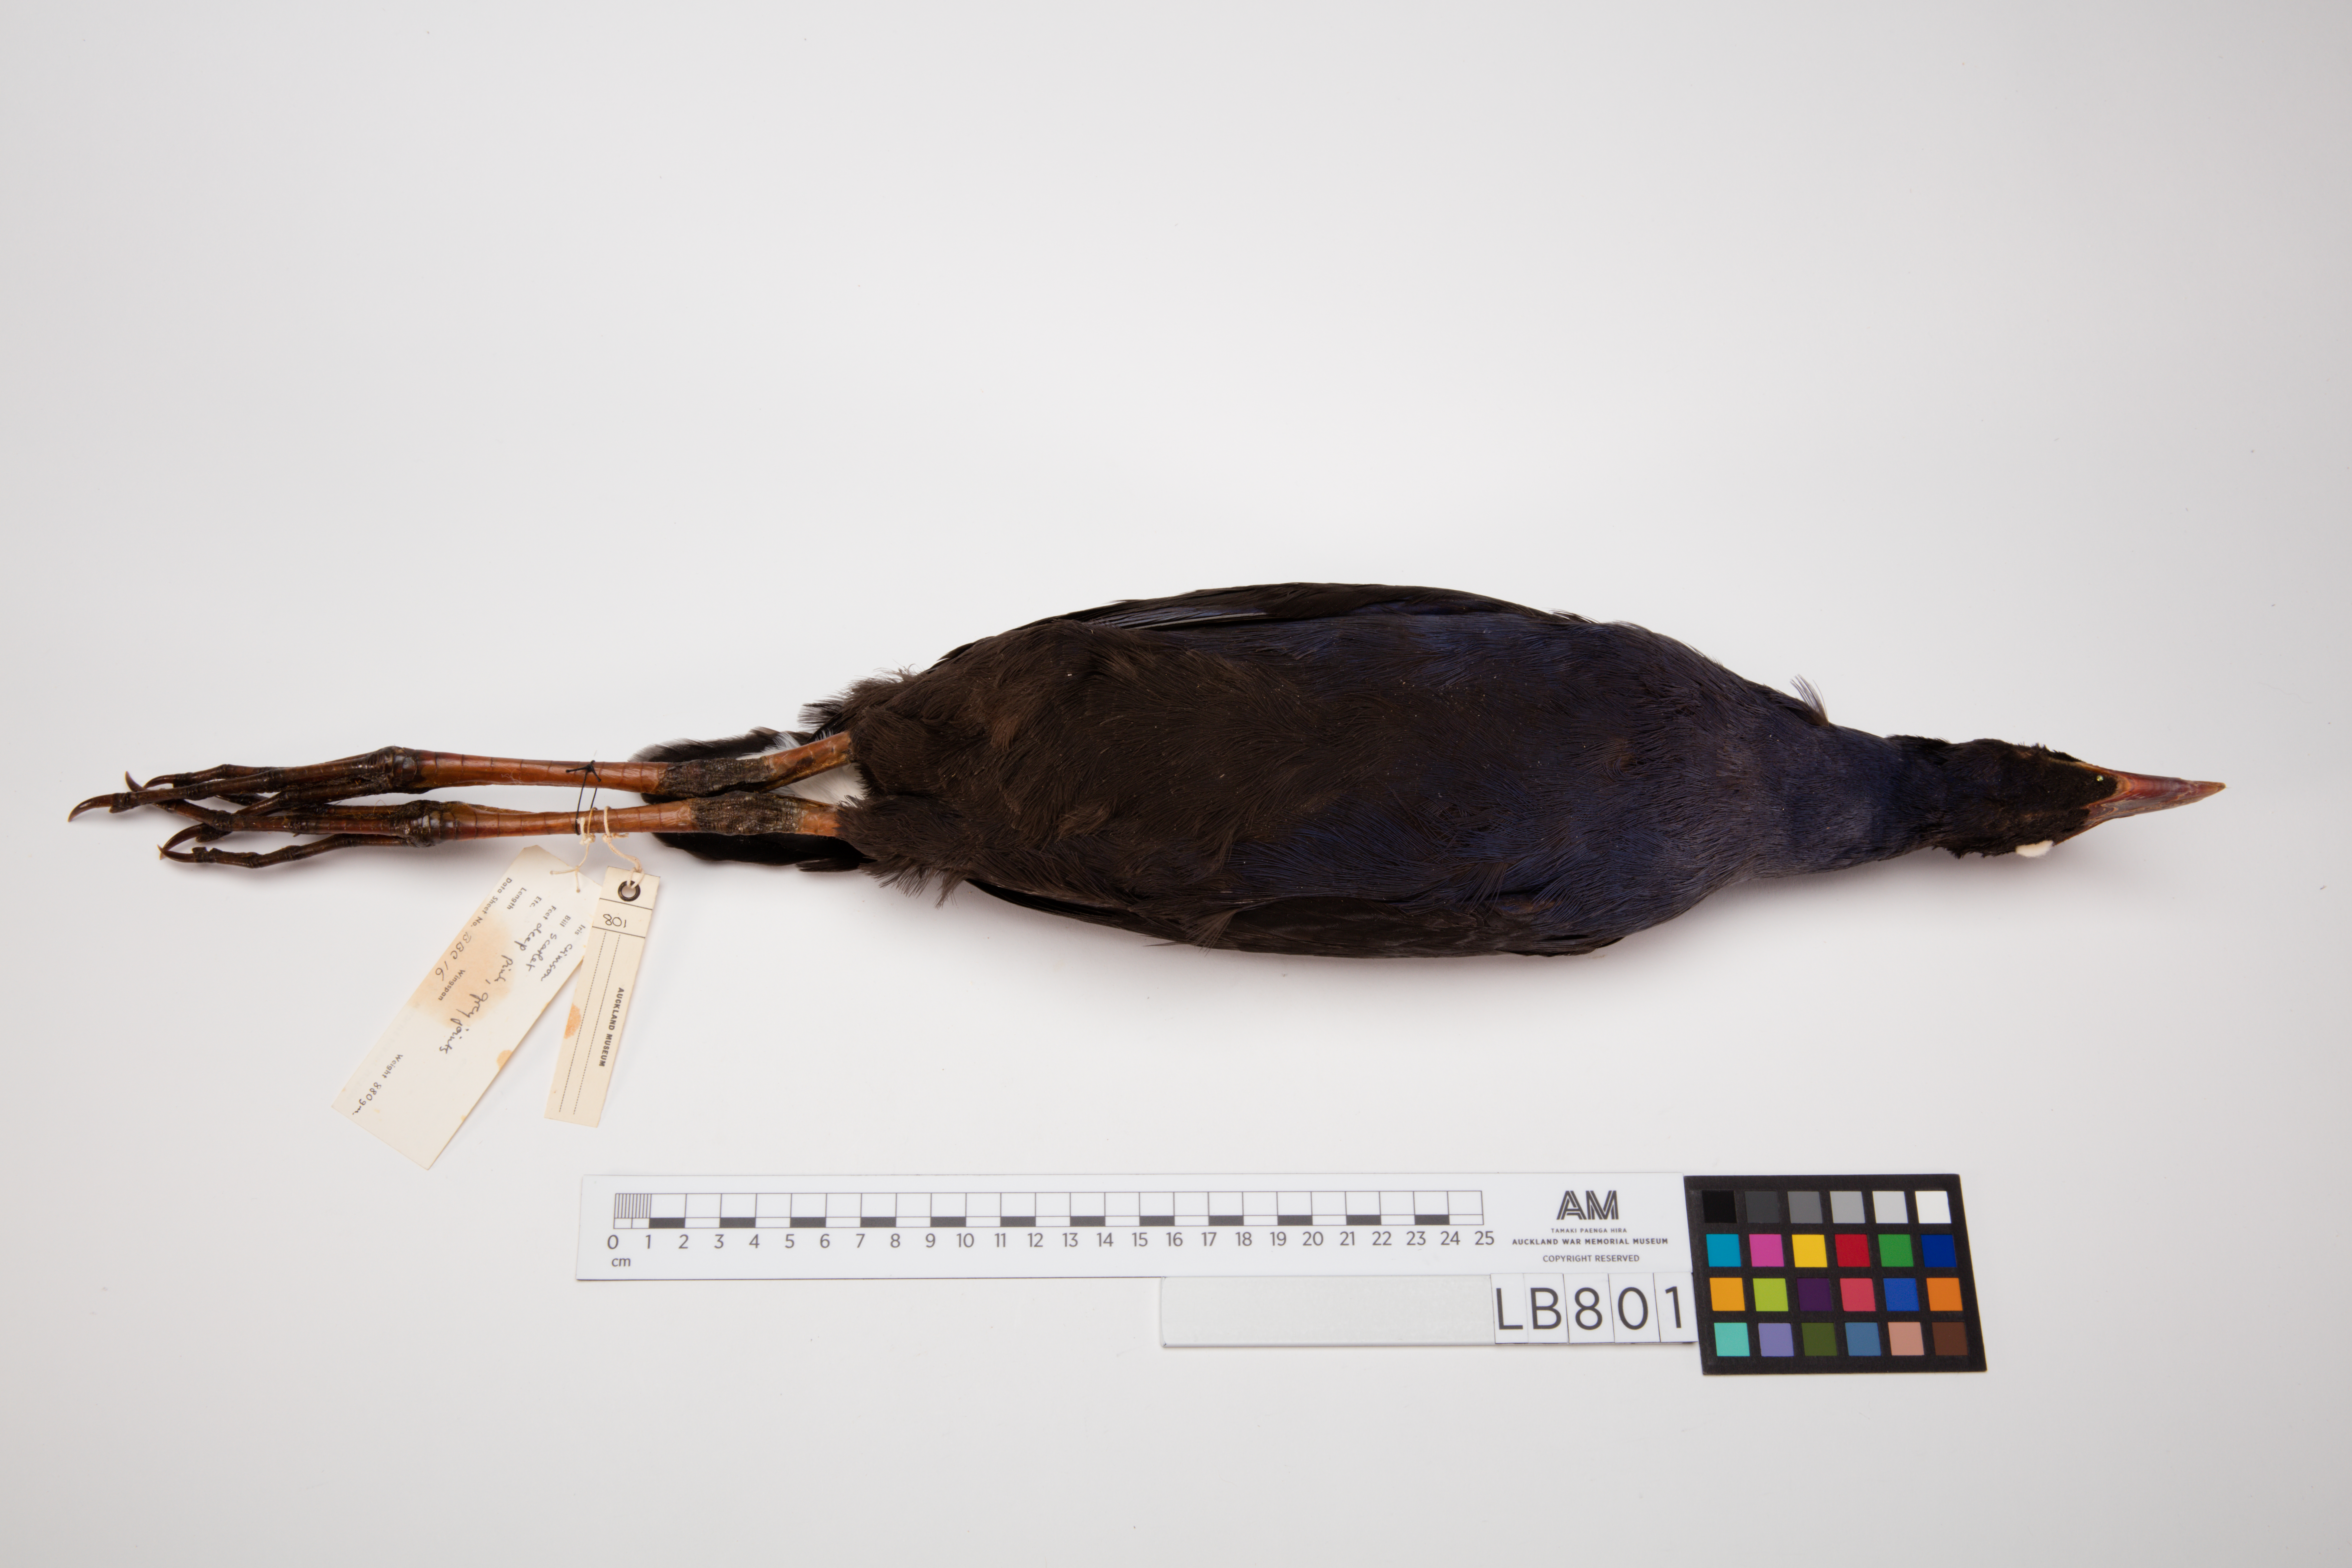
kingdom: Animalia
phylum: Chordata
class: Aves
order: Gruiformes
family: Rallidae
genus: Porphyrio
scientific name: Porphyrio melanotus
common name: Australasian swamphen
